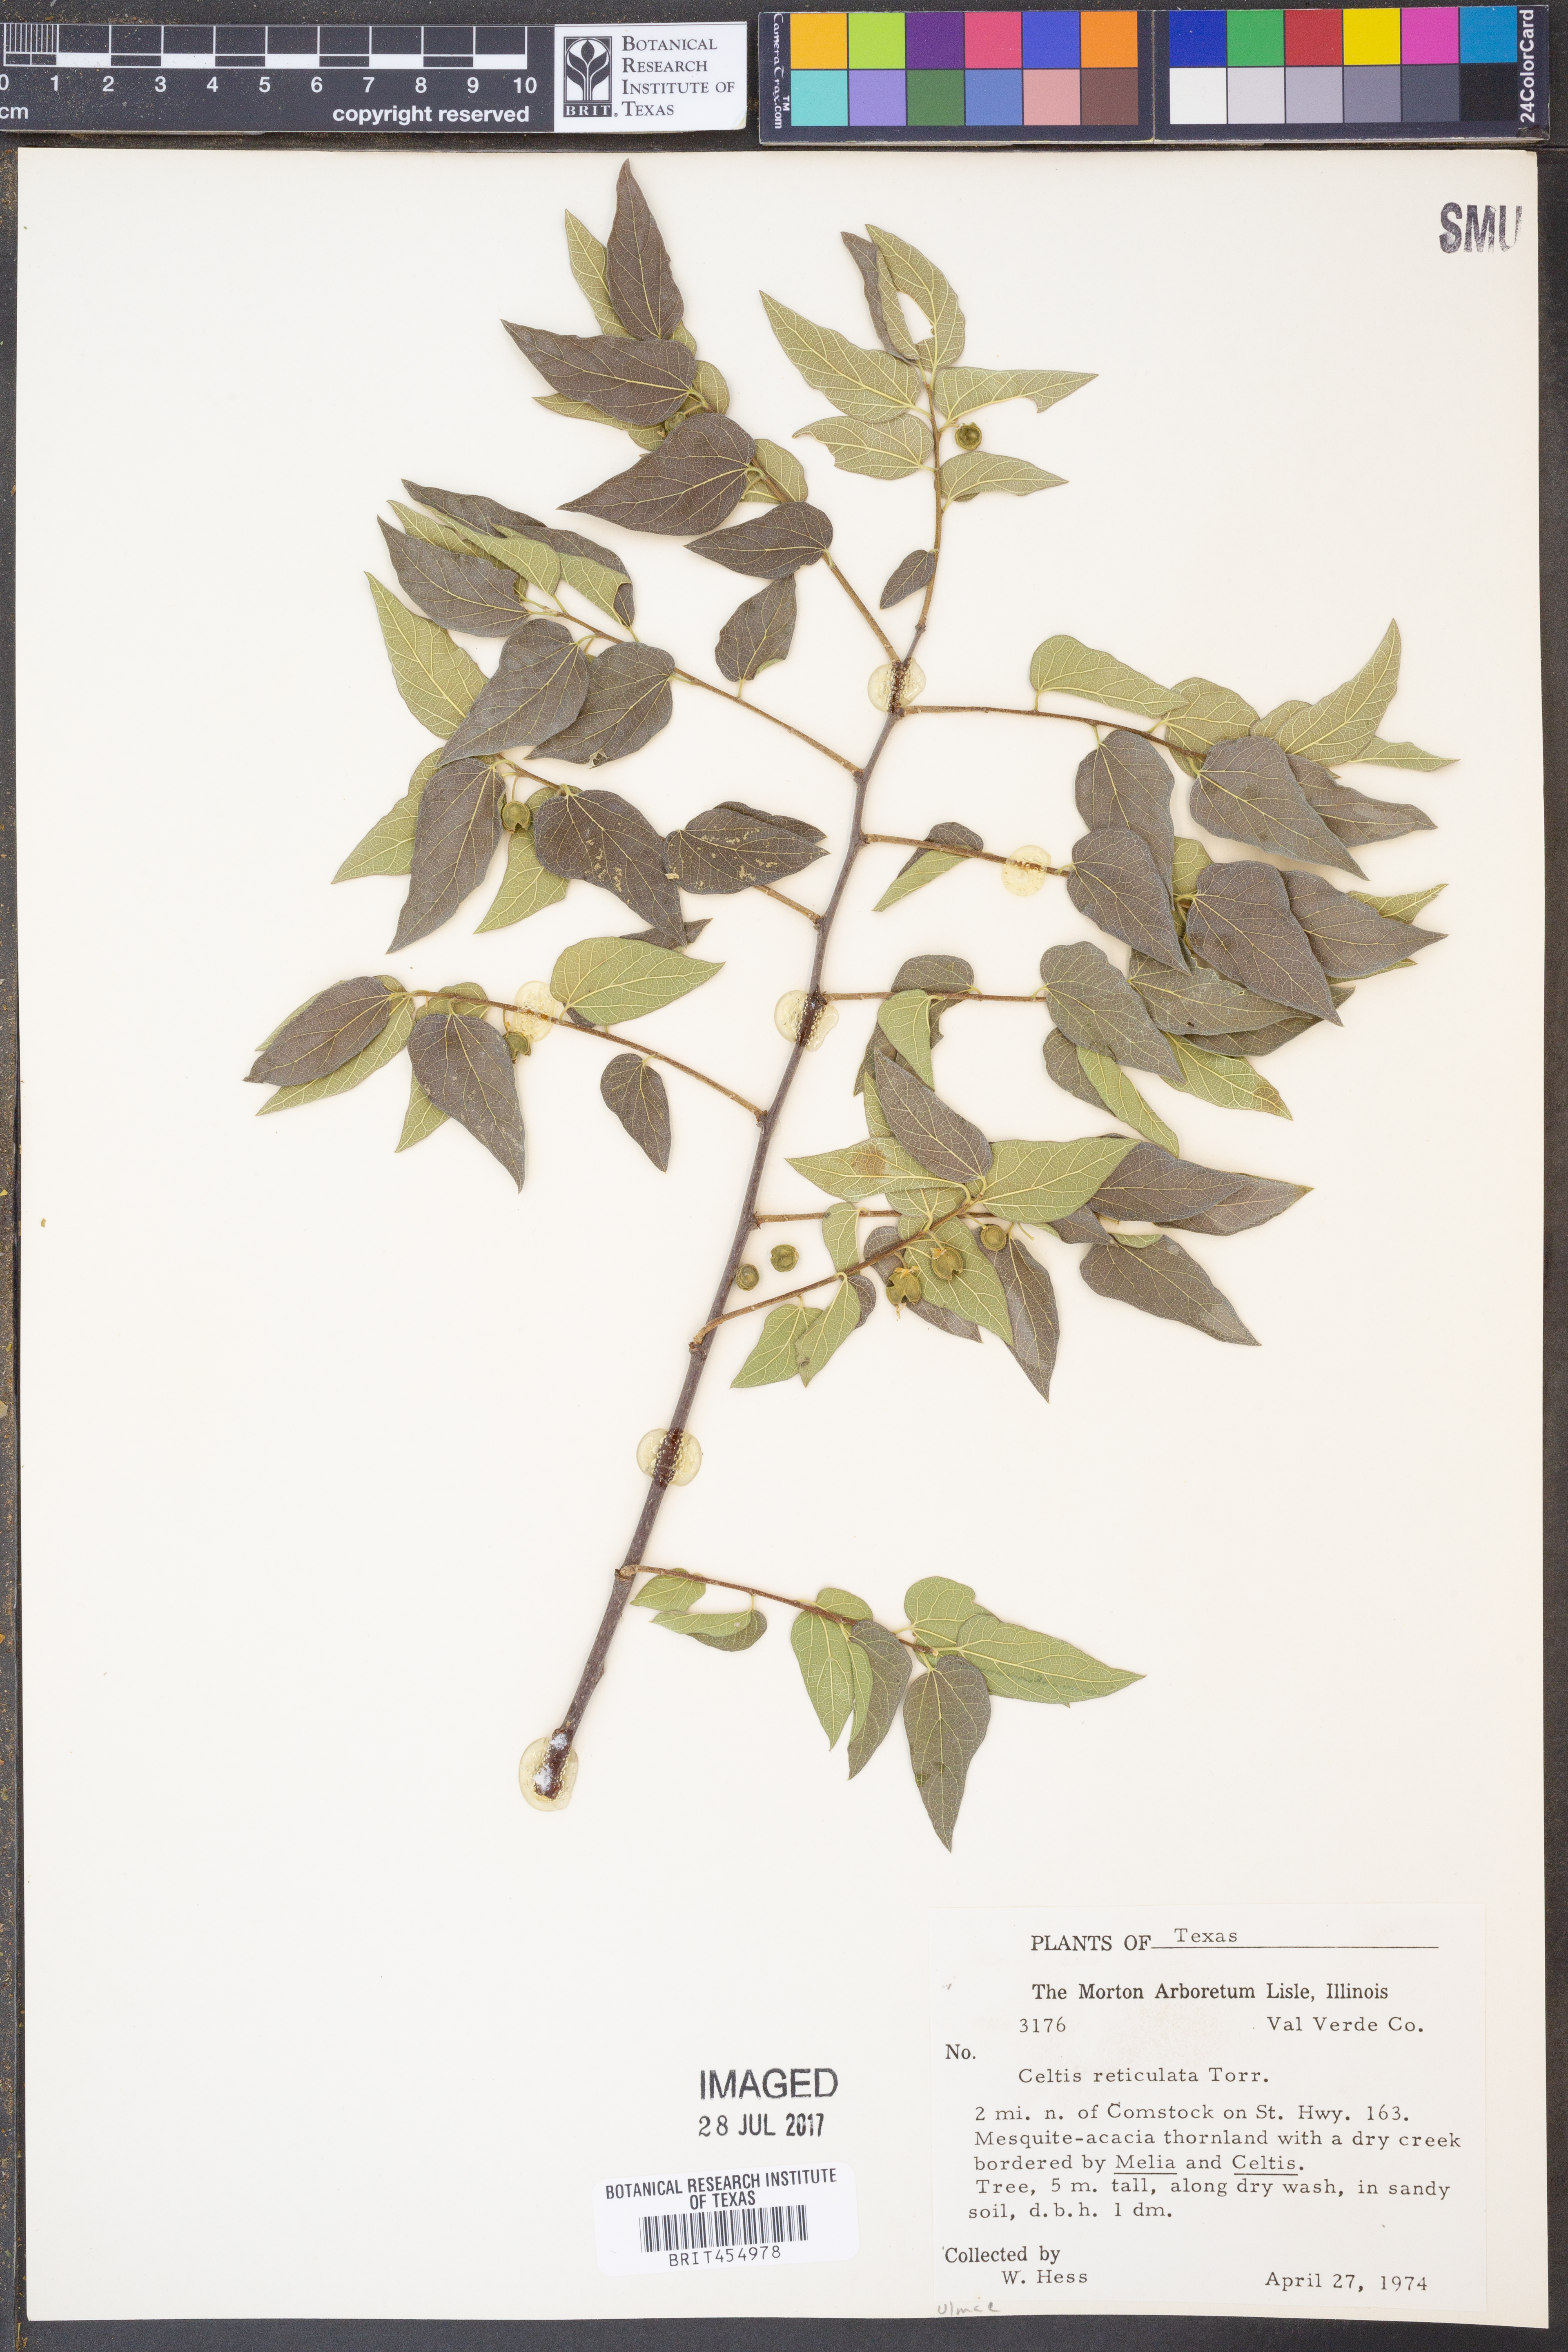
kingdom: Plantae
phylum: Tracheophyta
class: Magnoliopsida
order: Rosales
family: Cannabaceae
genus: Celtis
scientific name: Celtis reticulata
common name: Netleaf hackberry
